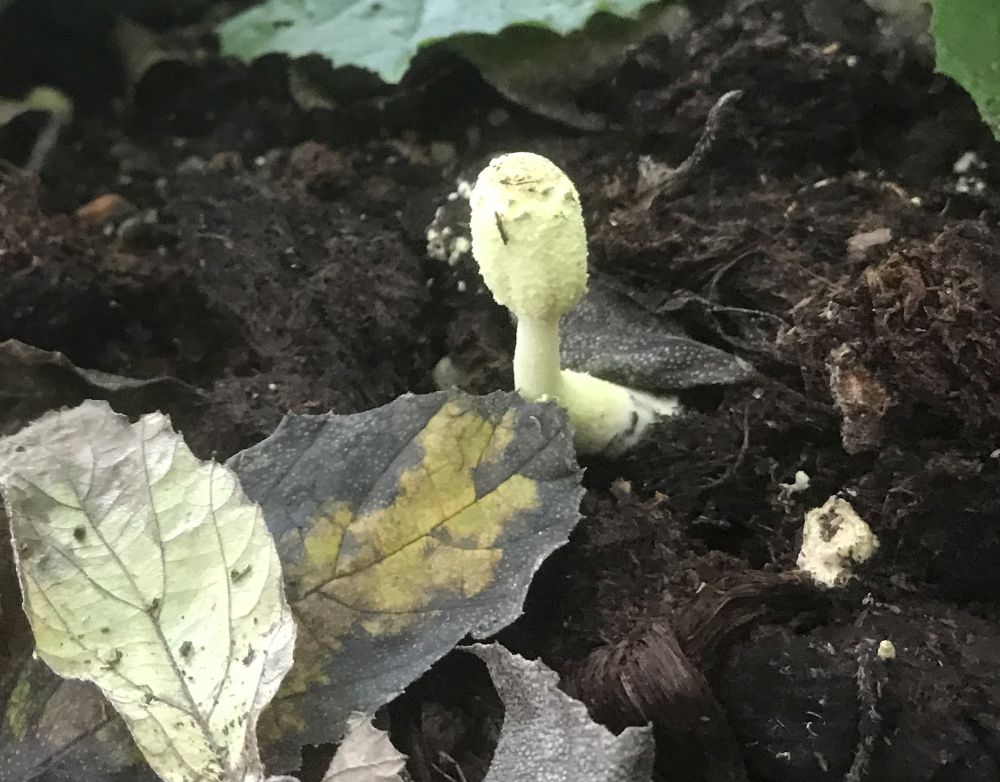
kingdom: Fungi
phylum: Basidiomycota
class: Agaricomycetes
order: Agaricales
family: Agaricaceae
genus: Leucocoprinus
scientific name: Leucocoprinus birnbaumii
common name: gul silkehat
